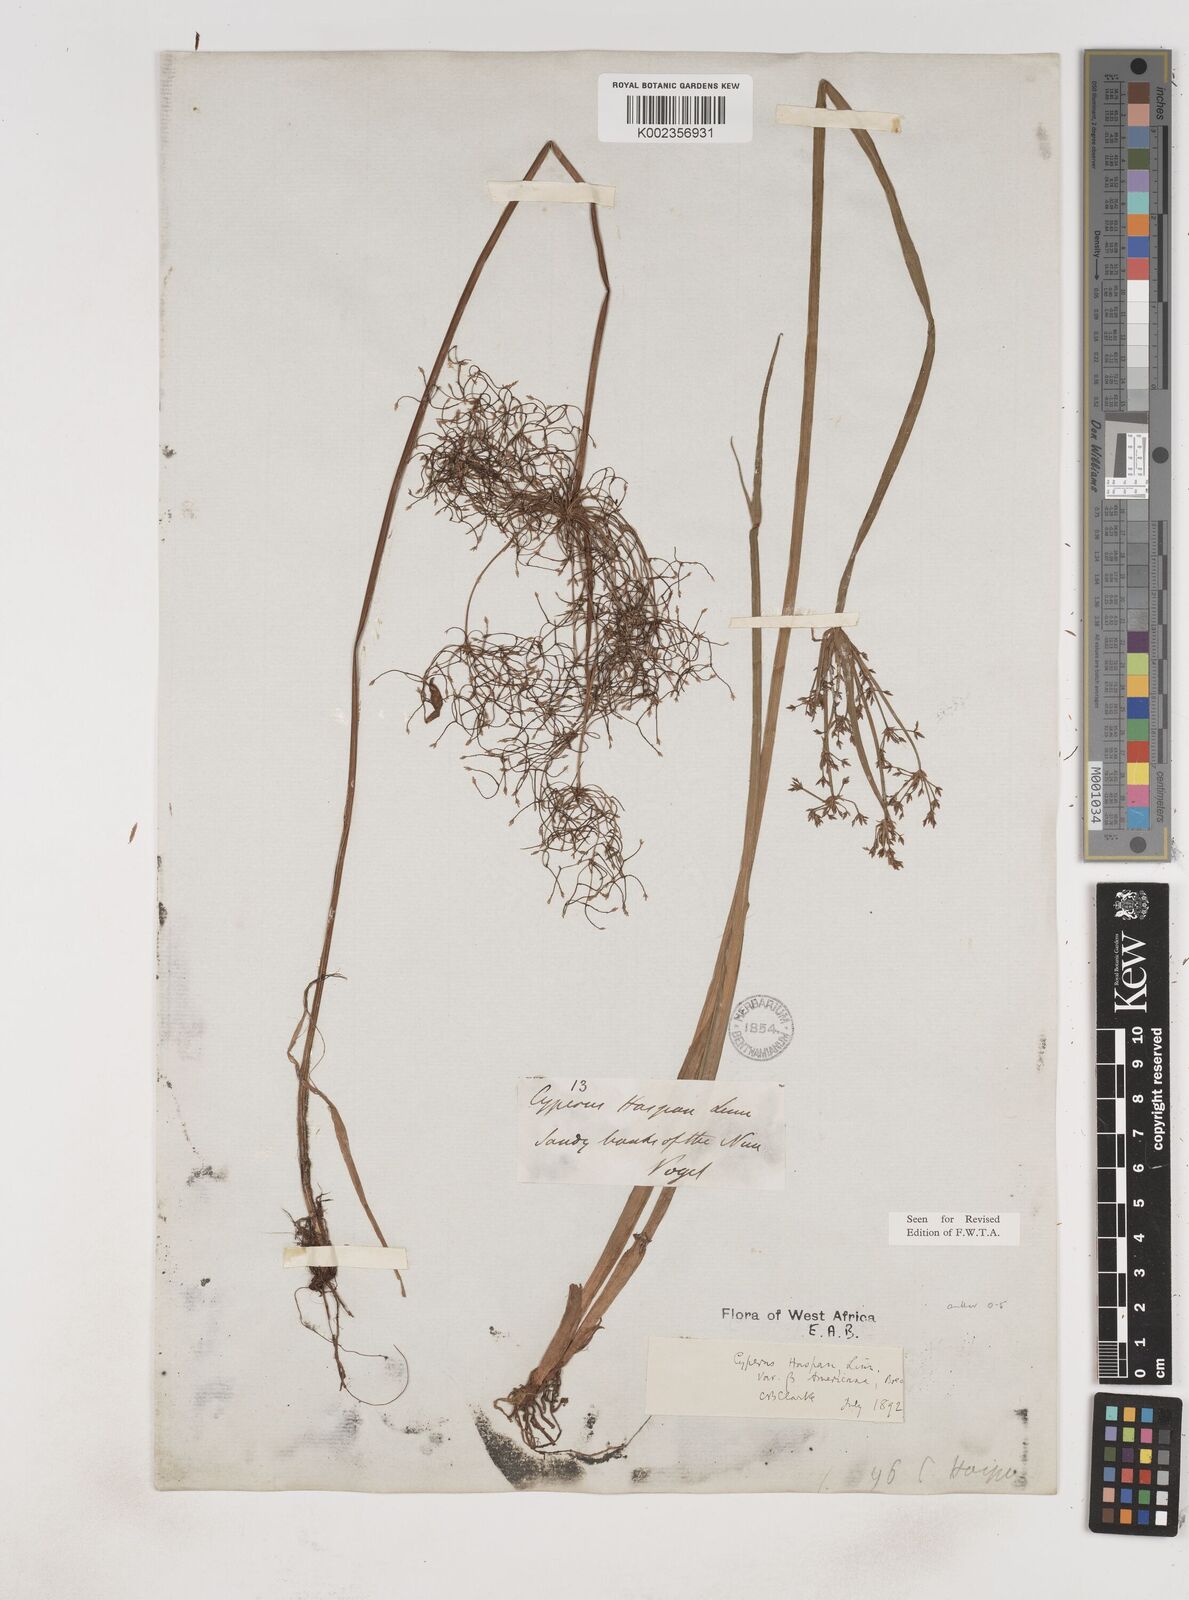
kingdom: Plantae
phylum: Tracheophyta
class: Liliopsida
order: Poales
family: Cyperaceae
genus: Cyperus
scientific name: Cyperus haspan
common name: Haspan flatsedge
